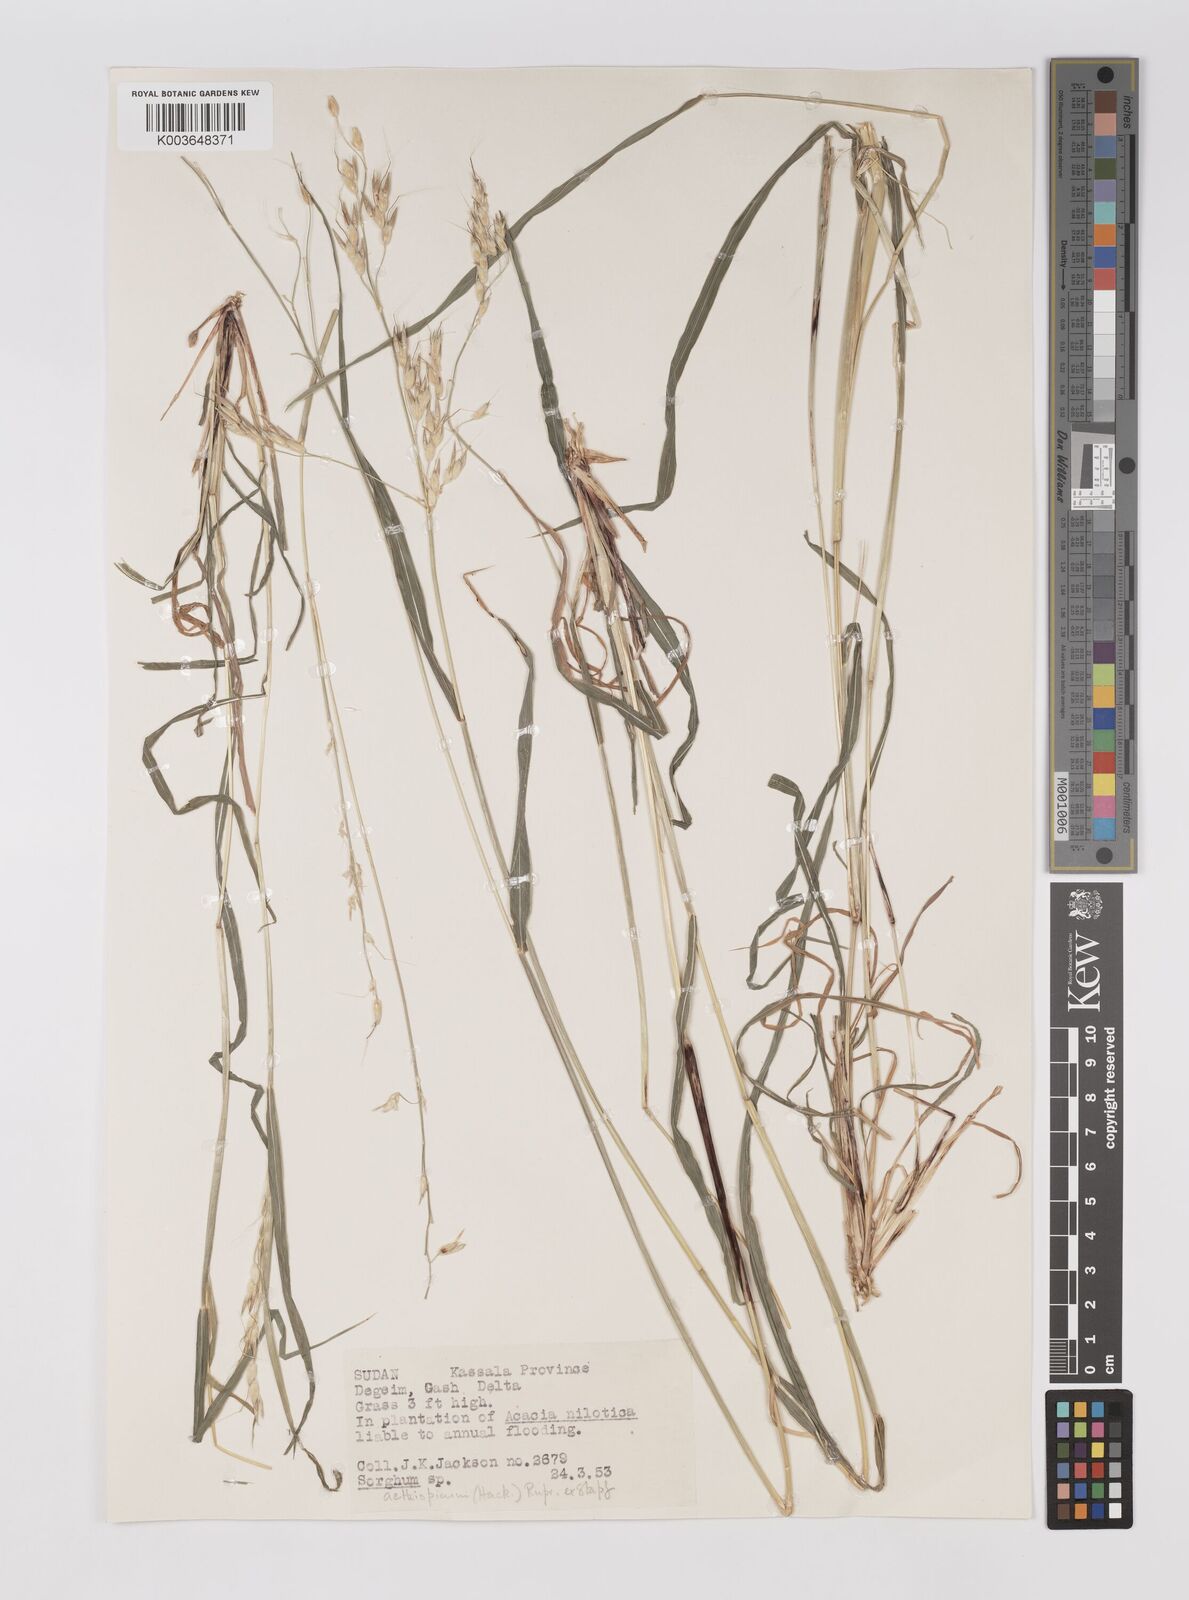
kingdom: Plantae
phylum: Tracheophyta
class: Liliopsida
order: Poales
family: Poaceae
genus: Sorghum
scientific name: Sorghum virgatum
